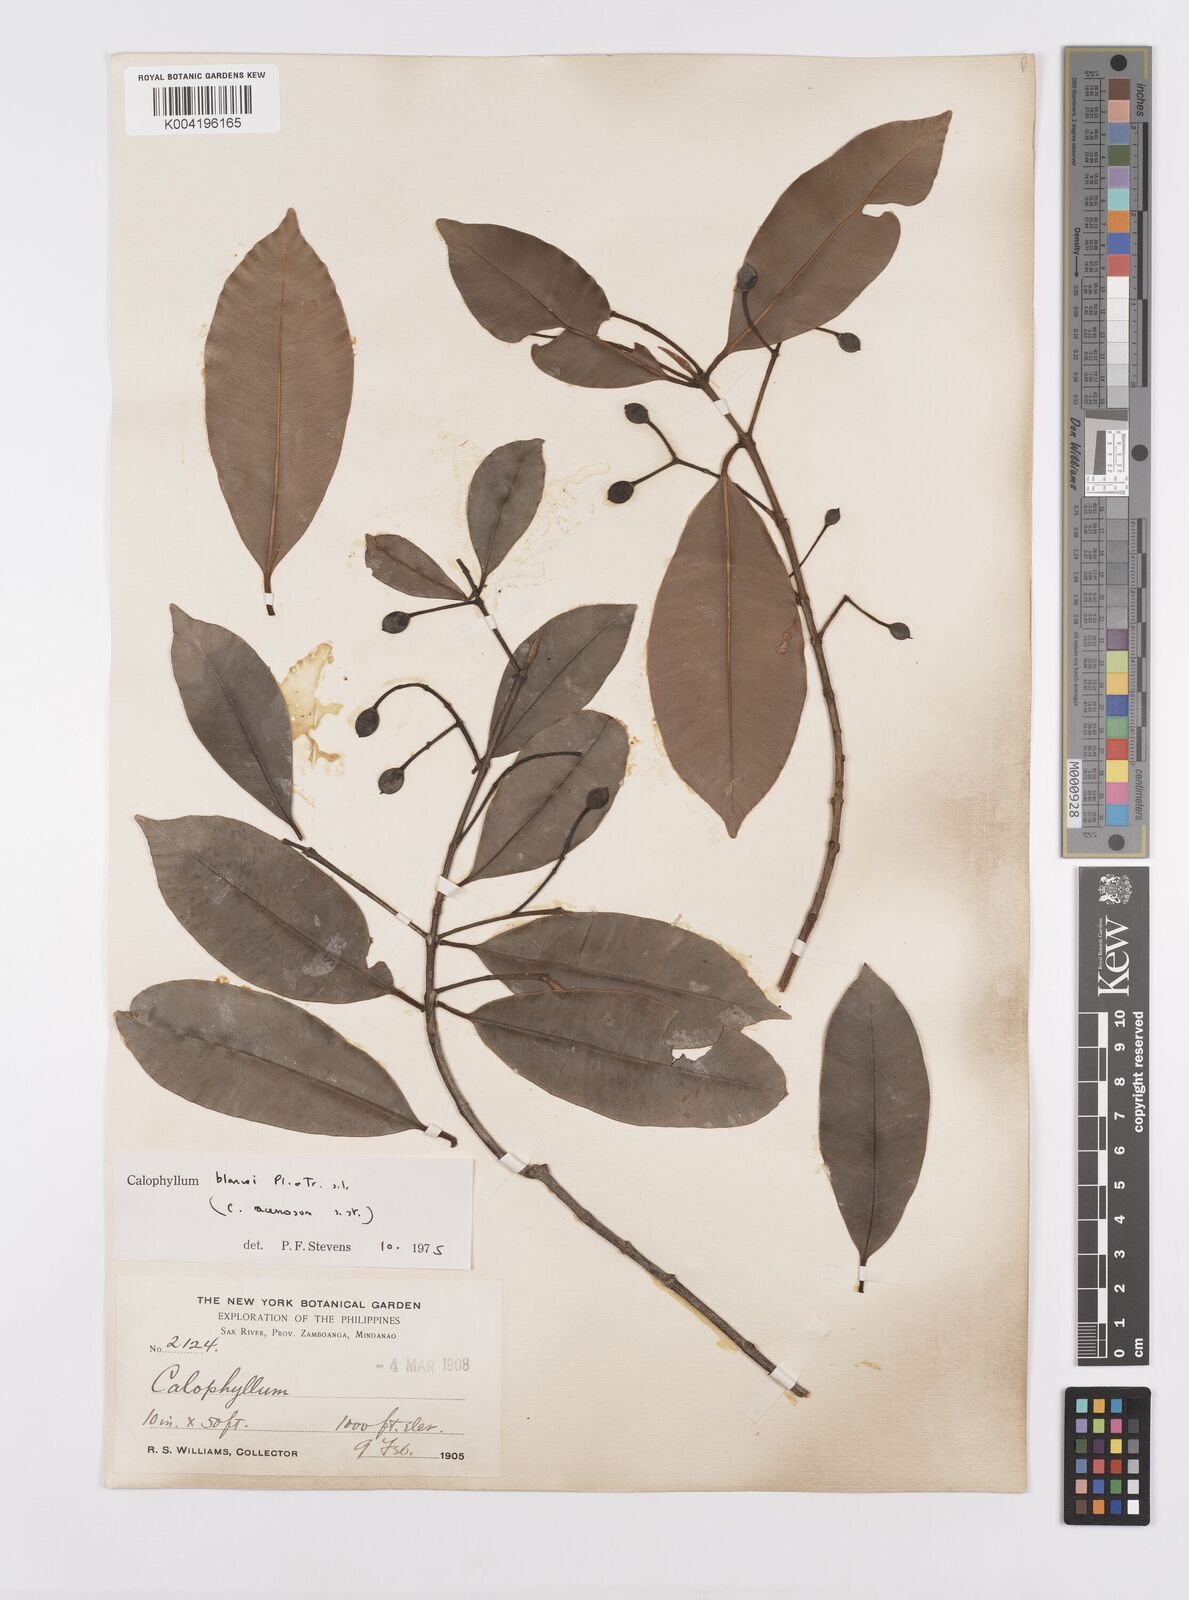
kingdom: Plantae
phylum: Tracheophyta
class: Magnoliopsida
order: Malpighiales
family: Calophyllaceae
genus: Calophyllum
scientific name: Calophyllum blancoi
